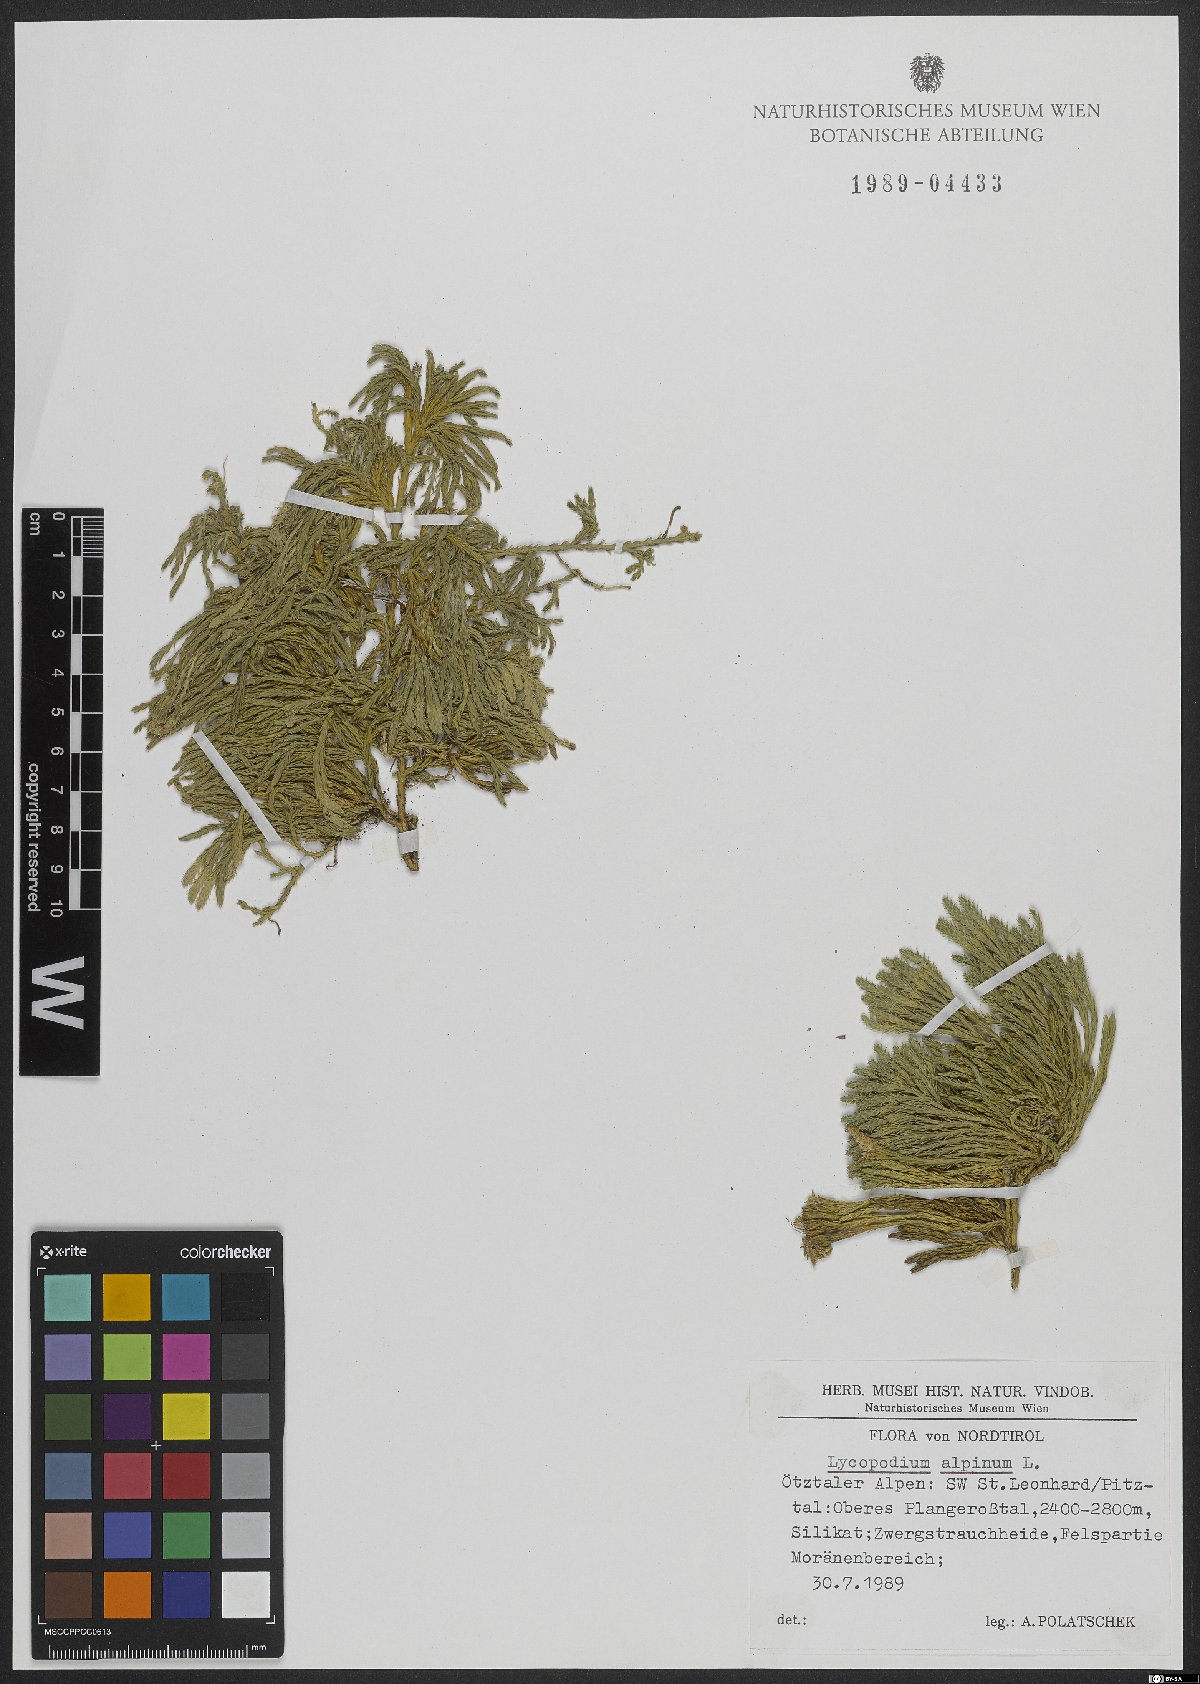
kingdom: Plantae
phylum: Tracheophyta
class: Lycopodiopsida
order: Lycopodiales
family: Lycopodiaceae
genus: Diphasiastrum
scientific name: Diphasiastrum alpinum
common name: Alpine clubmoss
